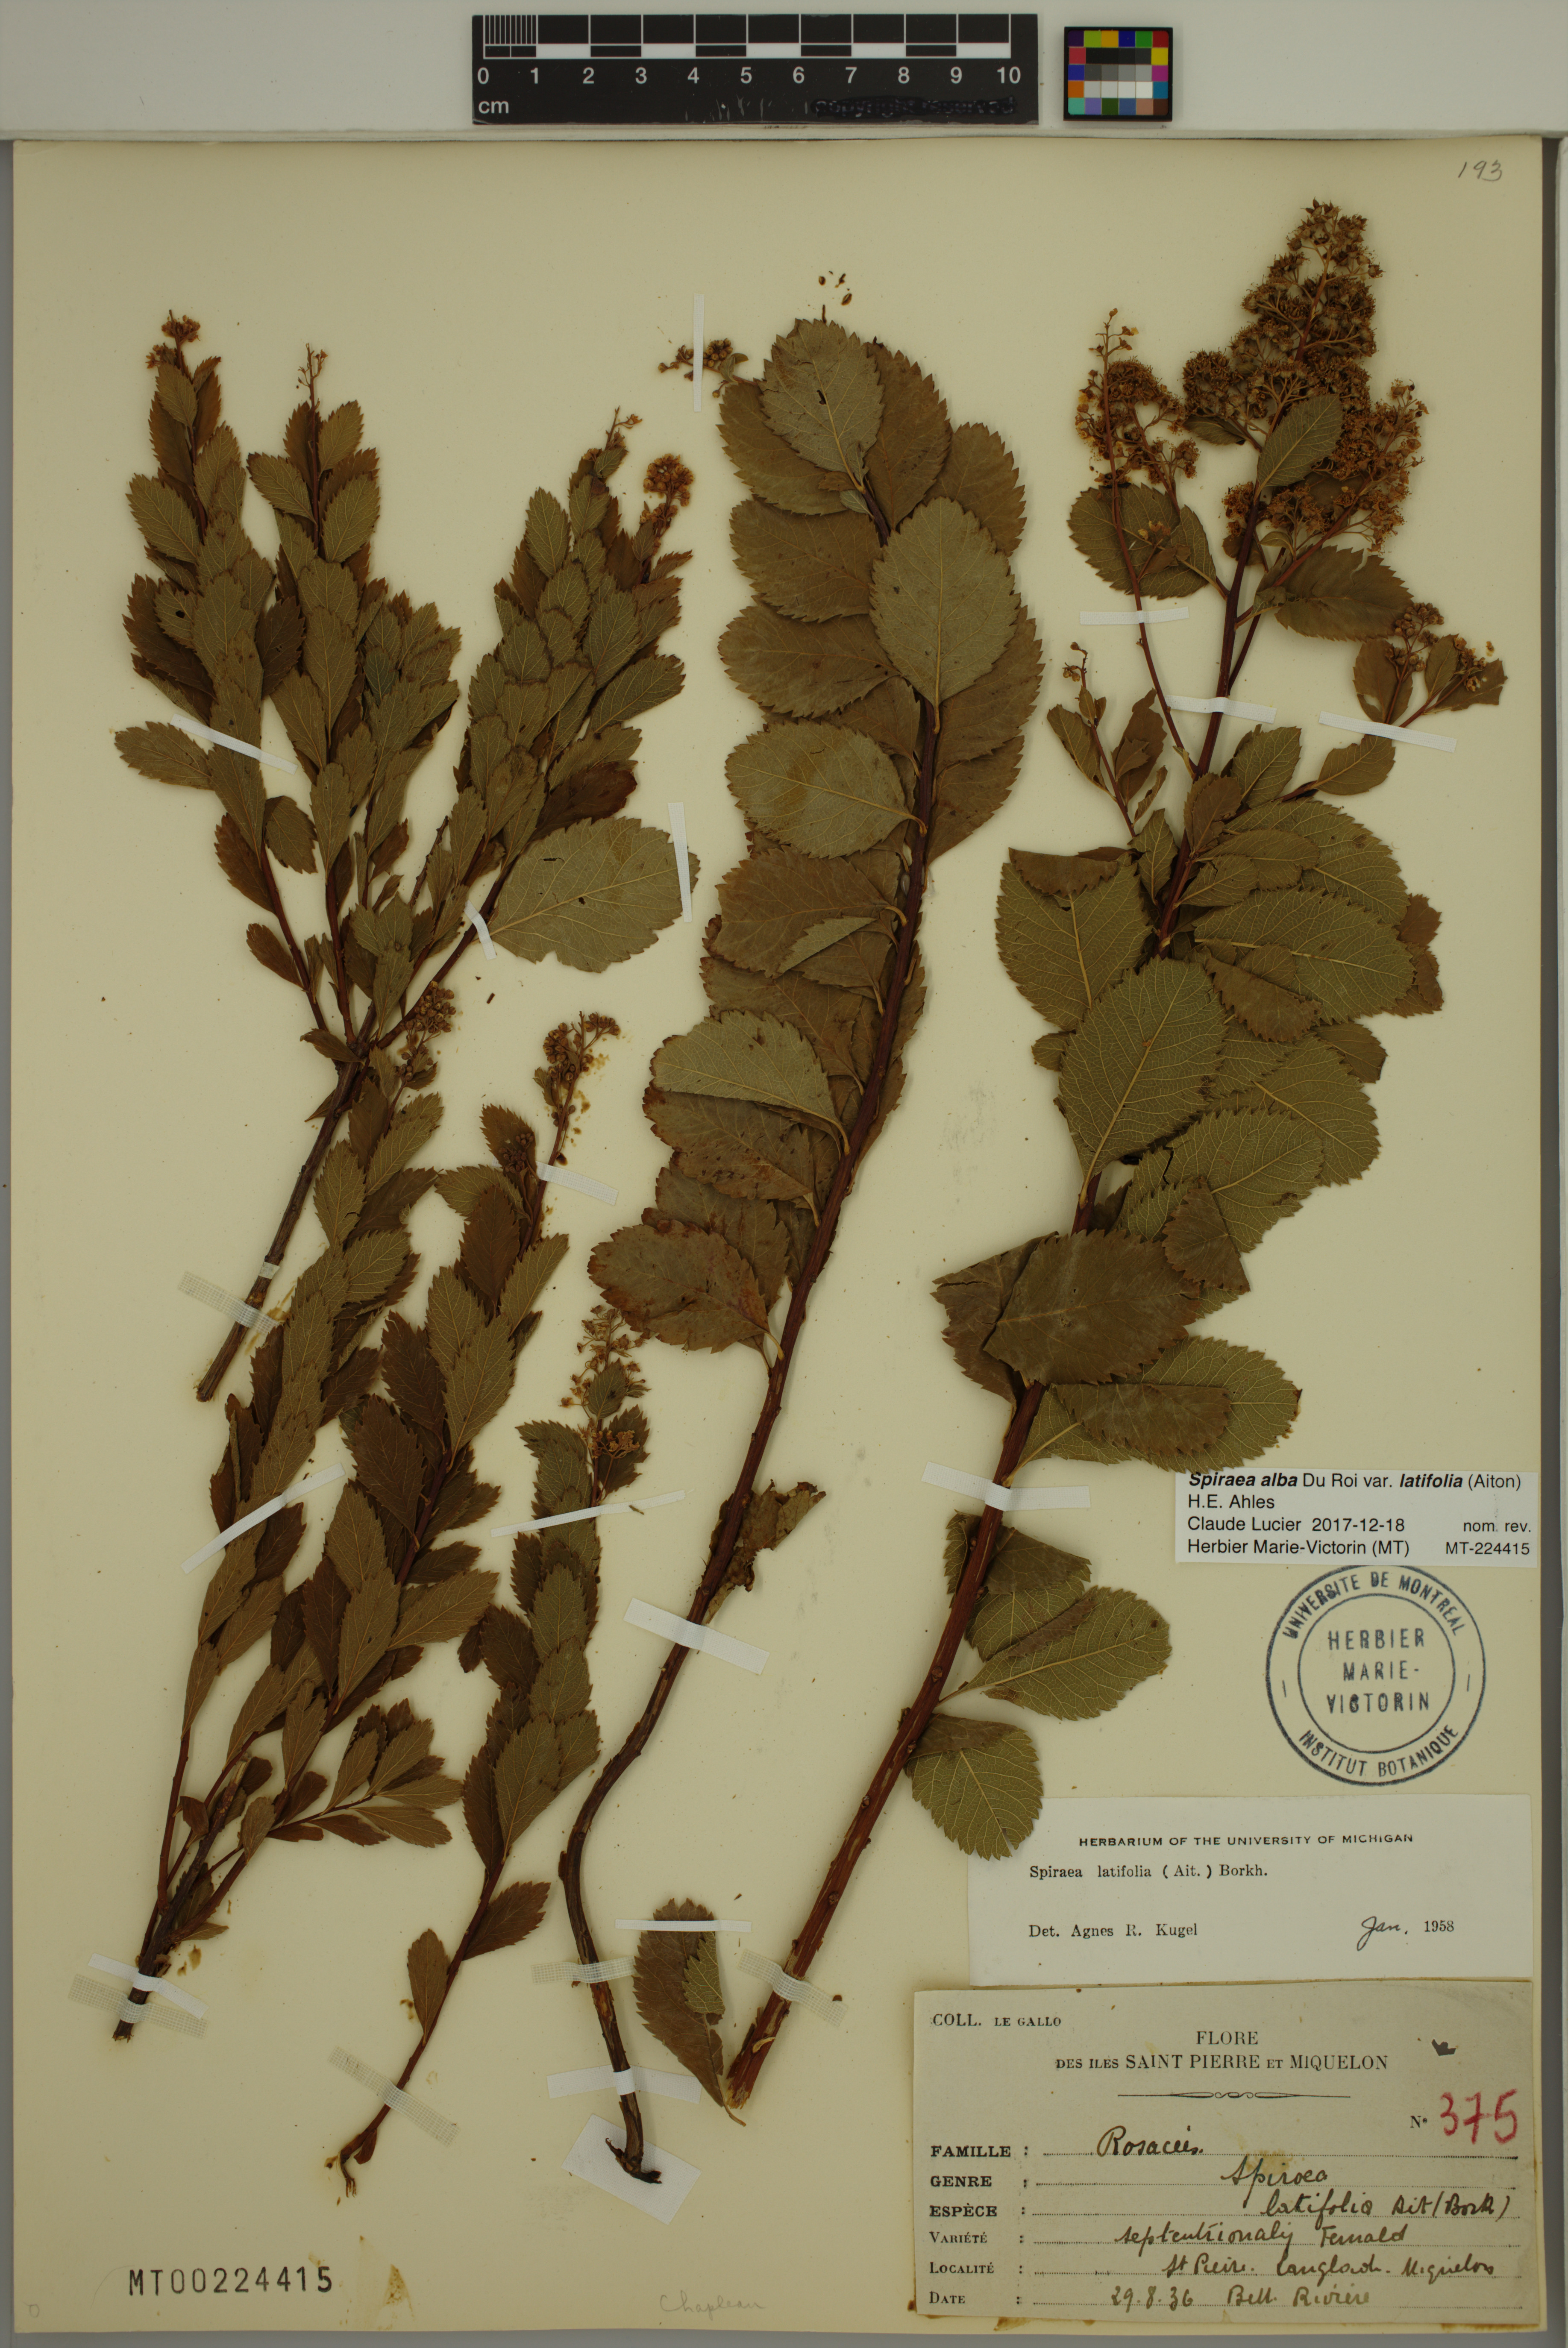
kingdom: Plantae
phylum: Tracheophyta
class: Magnoliopsida
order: Rosales
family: Rosaceae
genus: Spiraea
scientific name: Spiraea alba
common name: Pale bridewort
